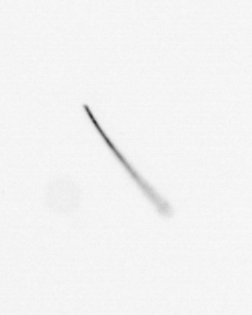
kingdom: Chromista
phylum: Ochrophyta
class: Bacillariophyceae
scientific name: Bacillariophyceae
